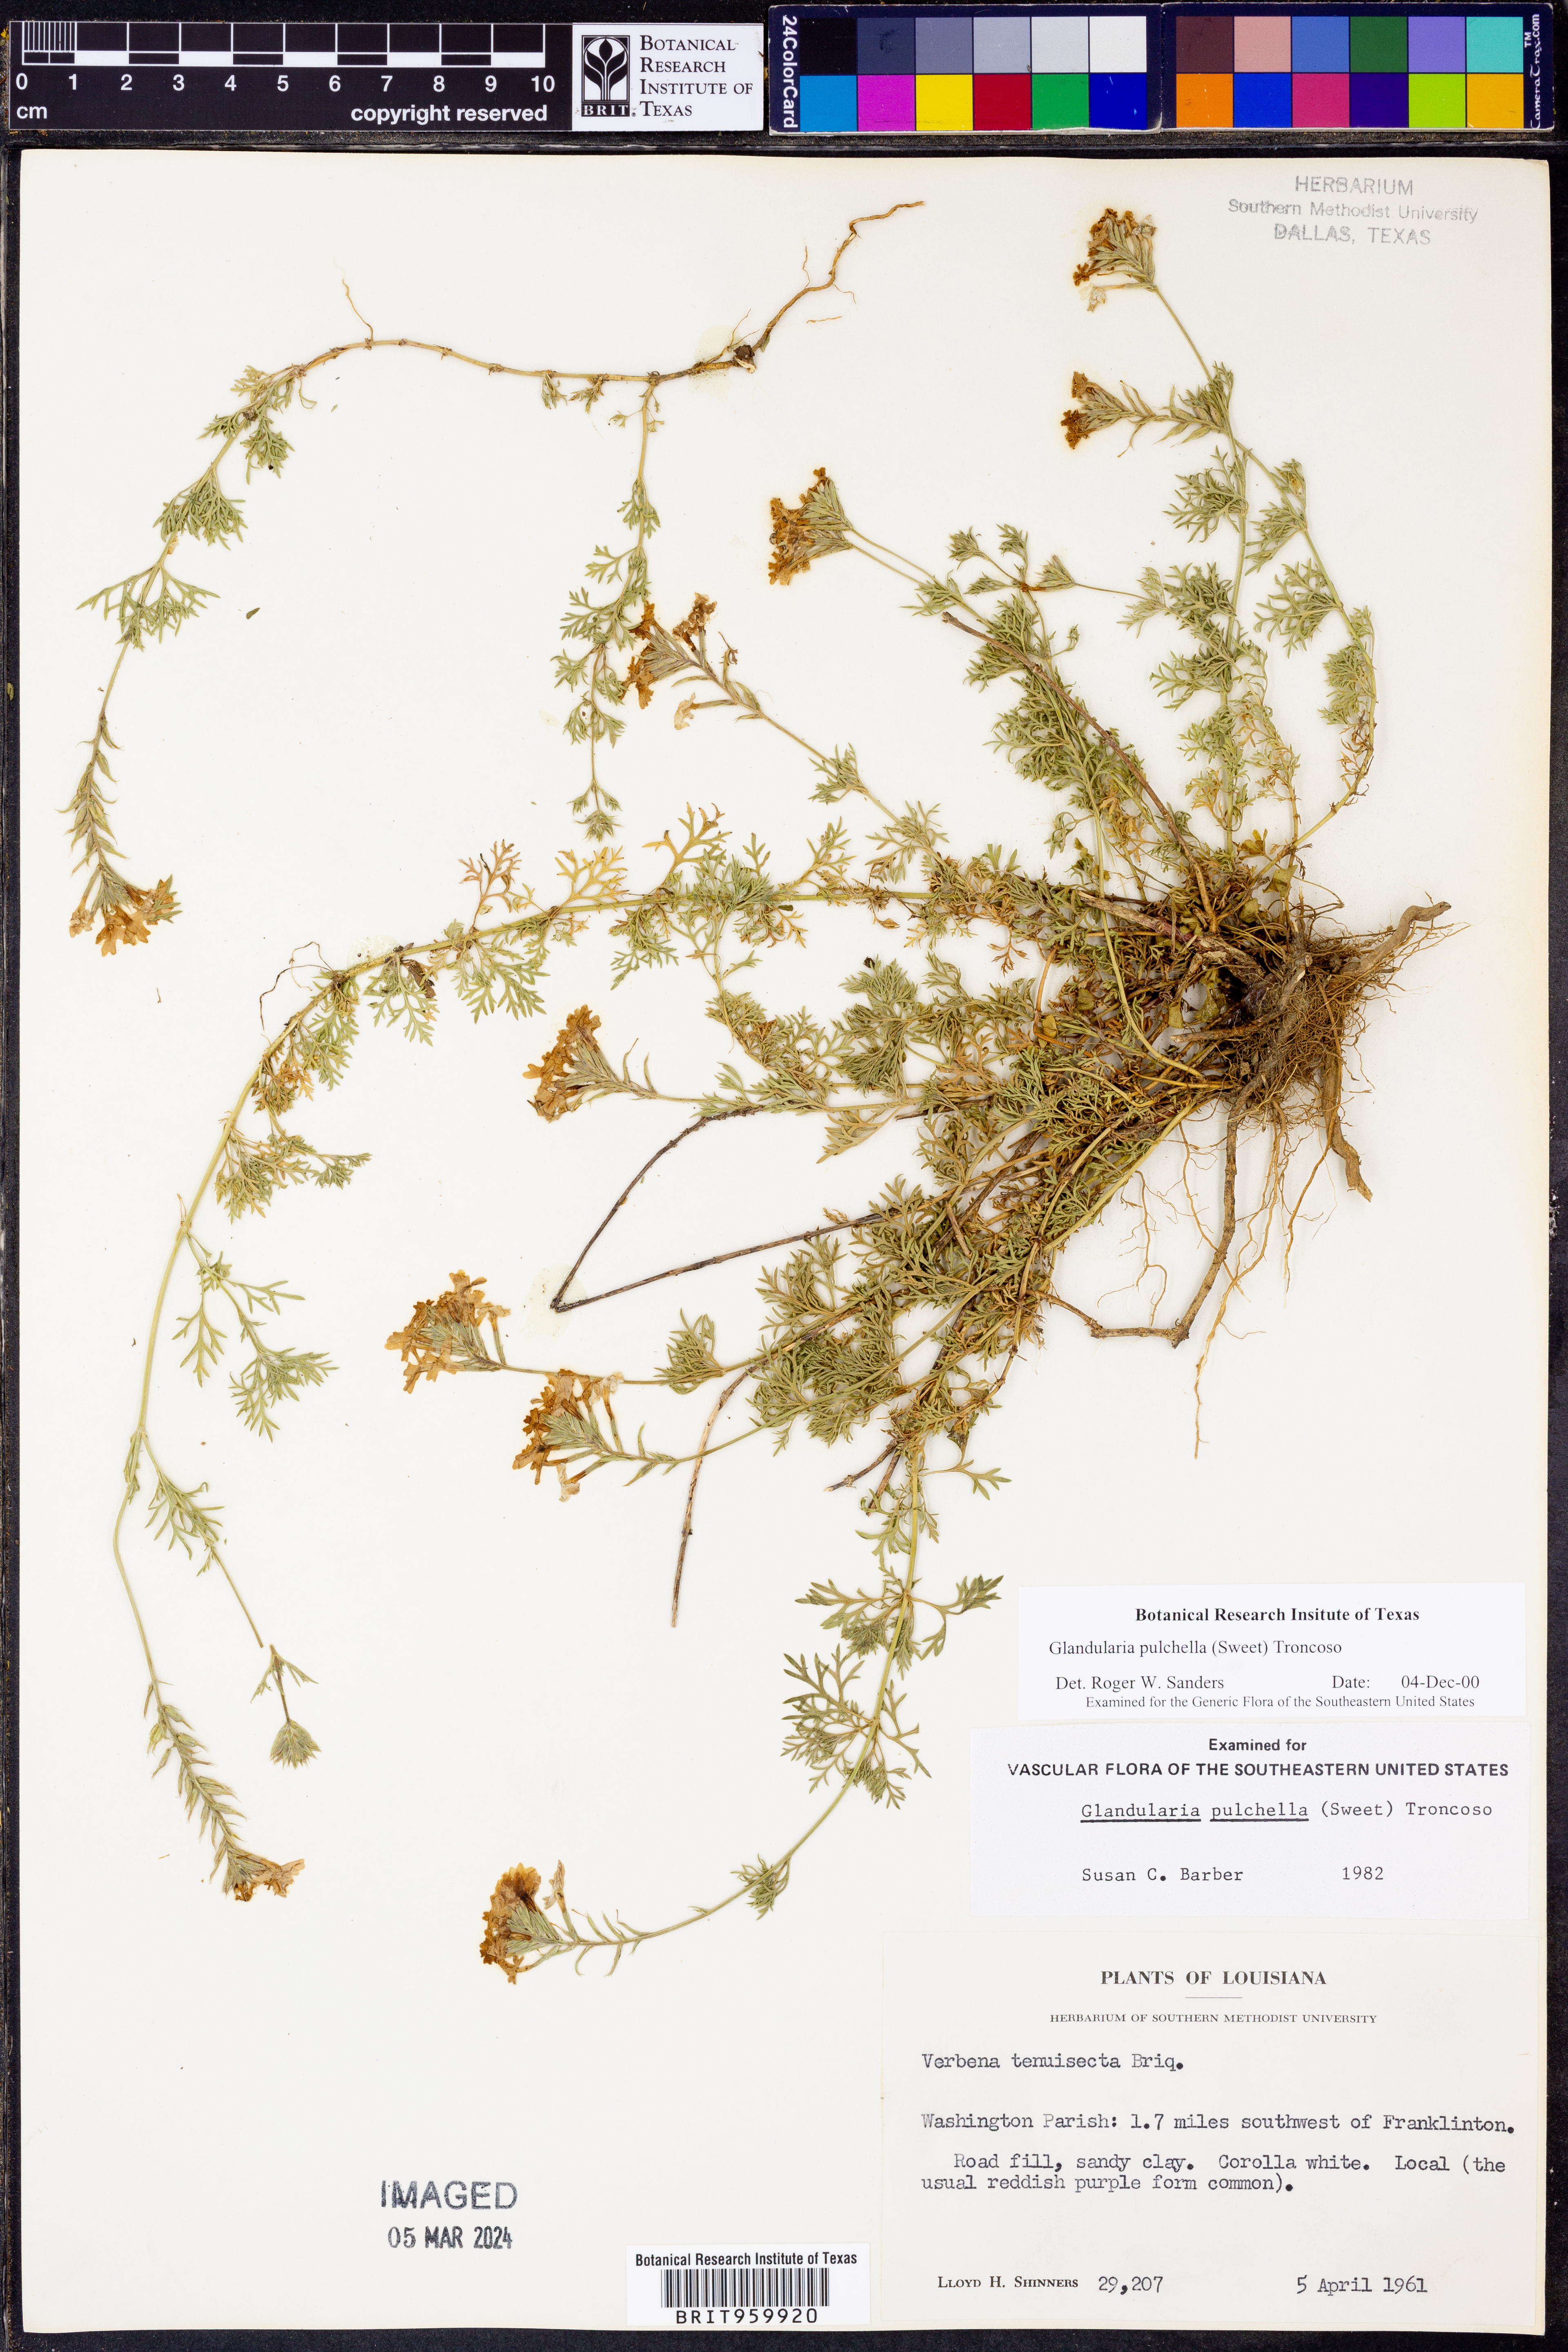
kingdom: Plantae
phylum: Tracheophyta
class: Magnoliopsida
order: Lamiales
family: Verbenaceae
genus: Verbena
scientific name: Verbena tenera
